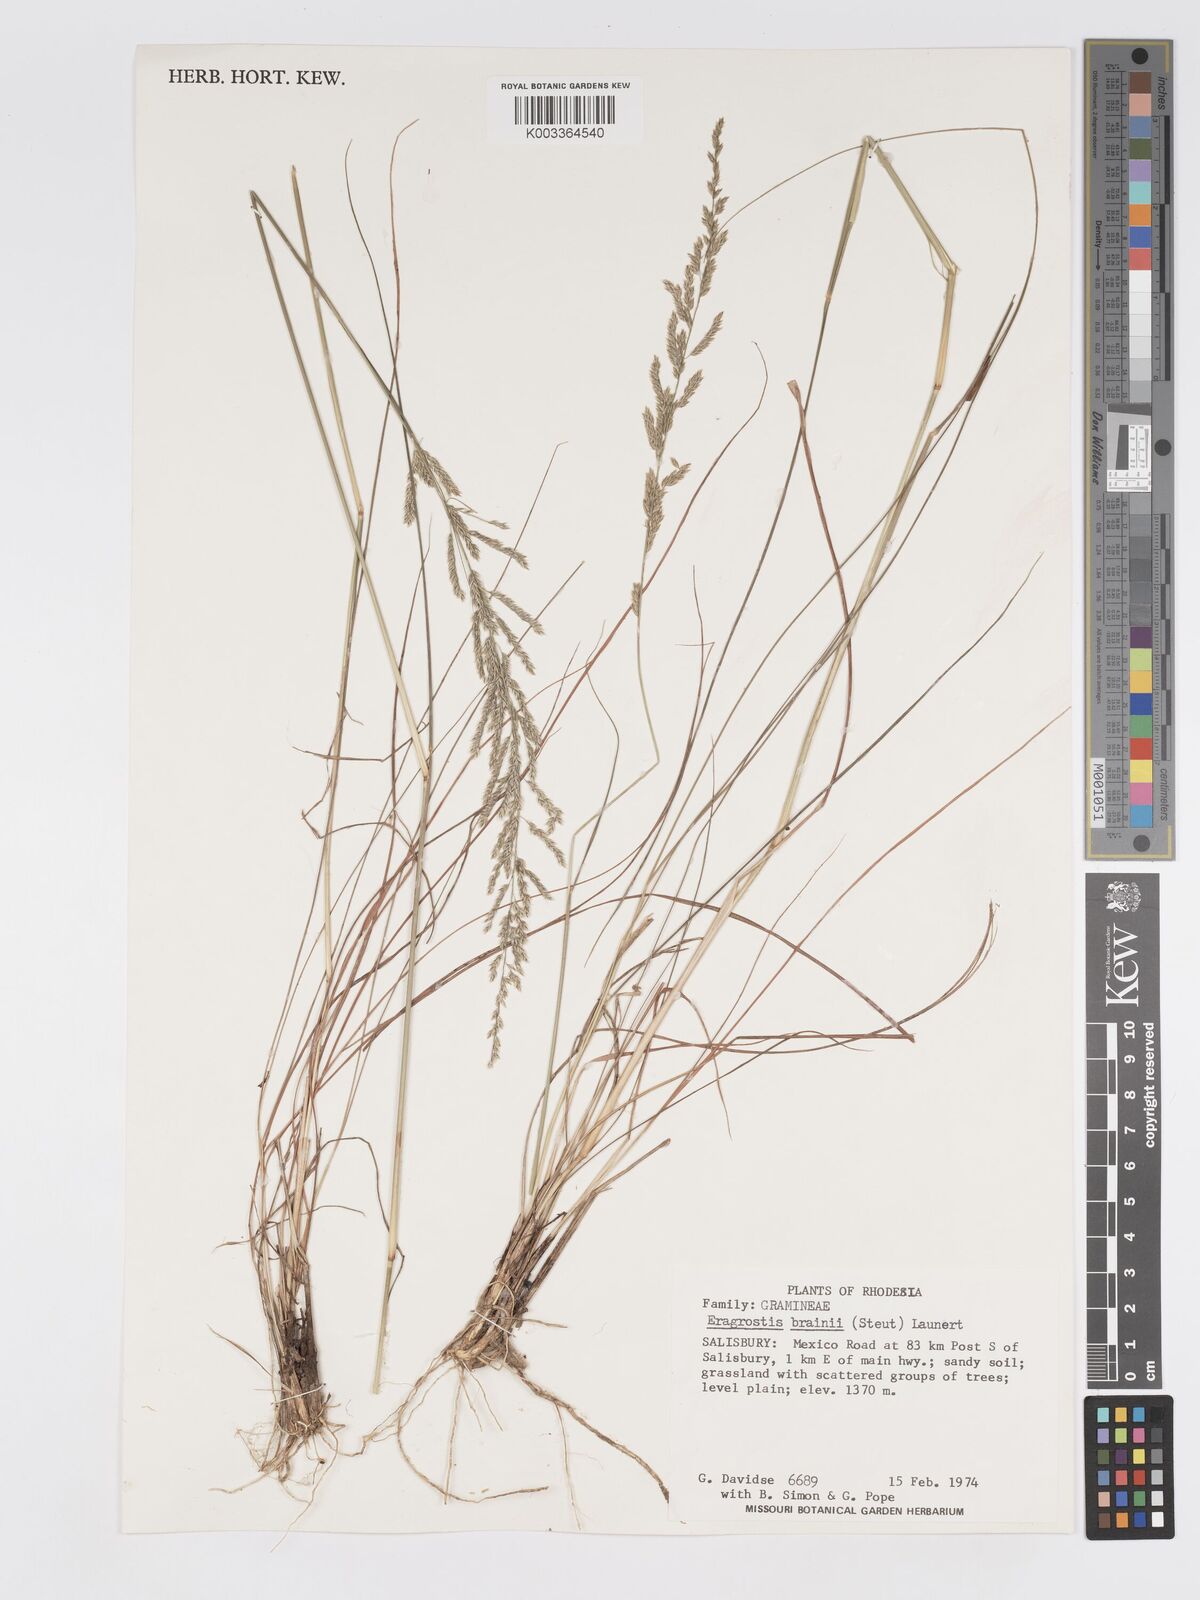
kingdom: Plantae
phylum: Tracheophyta
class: Liliopsida
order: Poales
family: Poaceae
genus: Eragrostis
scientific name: Eragrostis brainii
